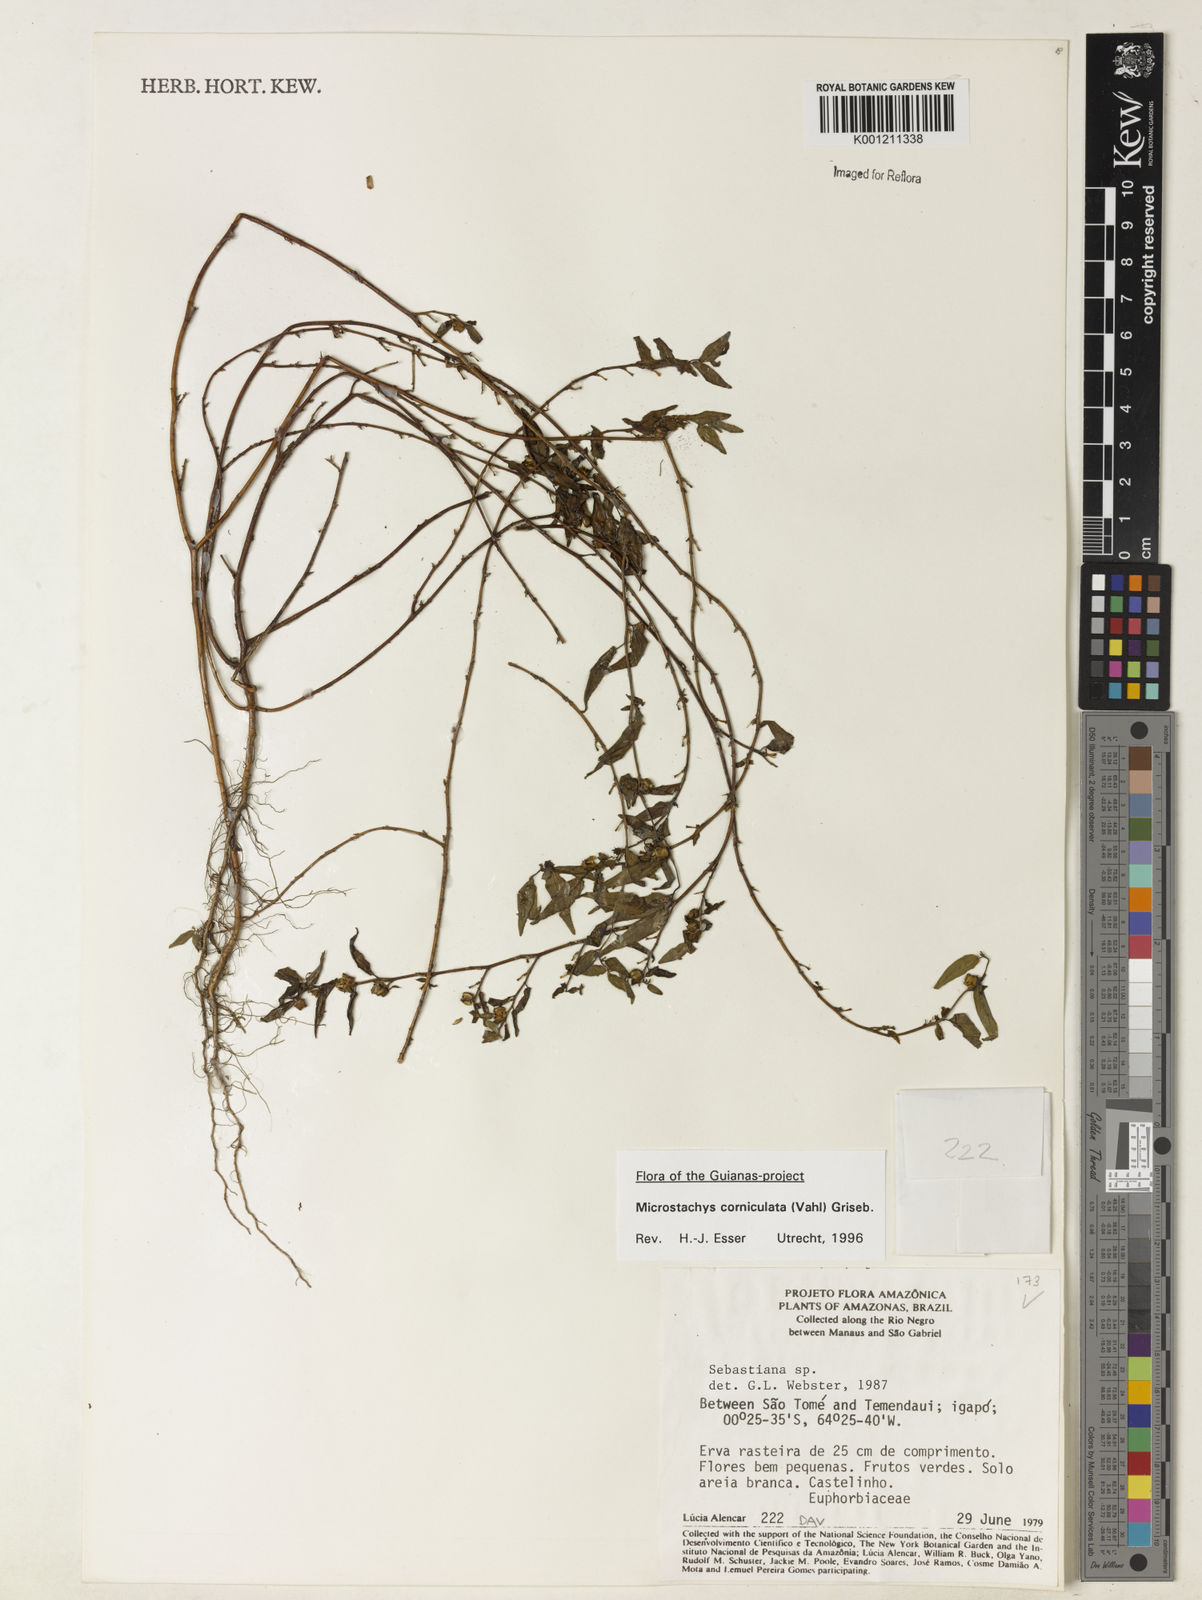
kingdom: Plantae
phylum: Tracheophyta
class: Magnoliopsida
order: Malpighiales
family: Euphorbiaceae
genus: Microstachys
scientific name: Microstachys corniculata
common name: Hato tejas
